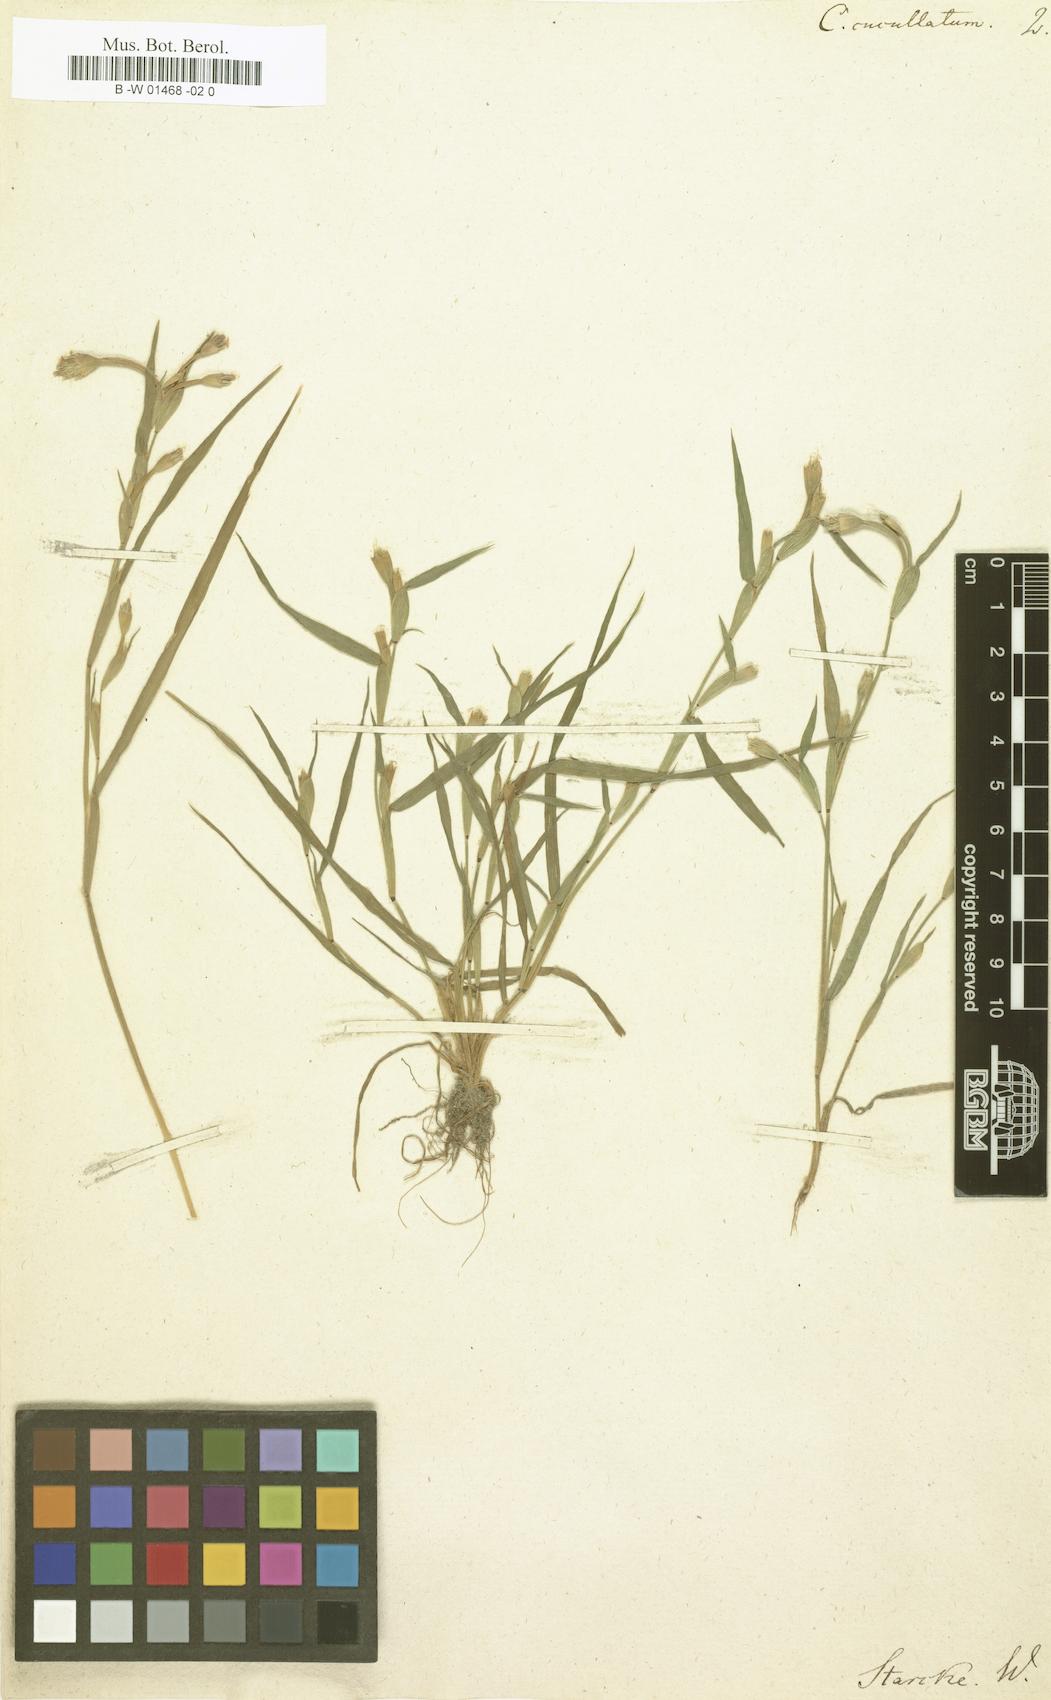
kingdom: Plantae
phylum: Tracheophyta
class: Liliopsida
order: Poales
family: Poaceae
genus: Cornucopiae
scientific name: Cornucopiae cucullatum
